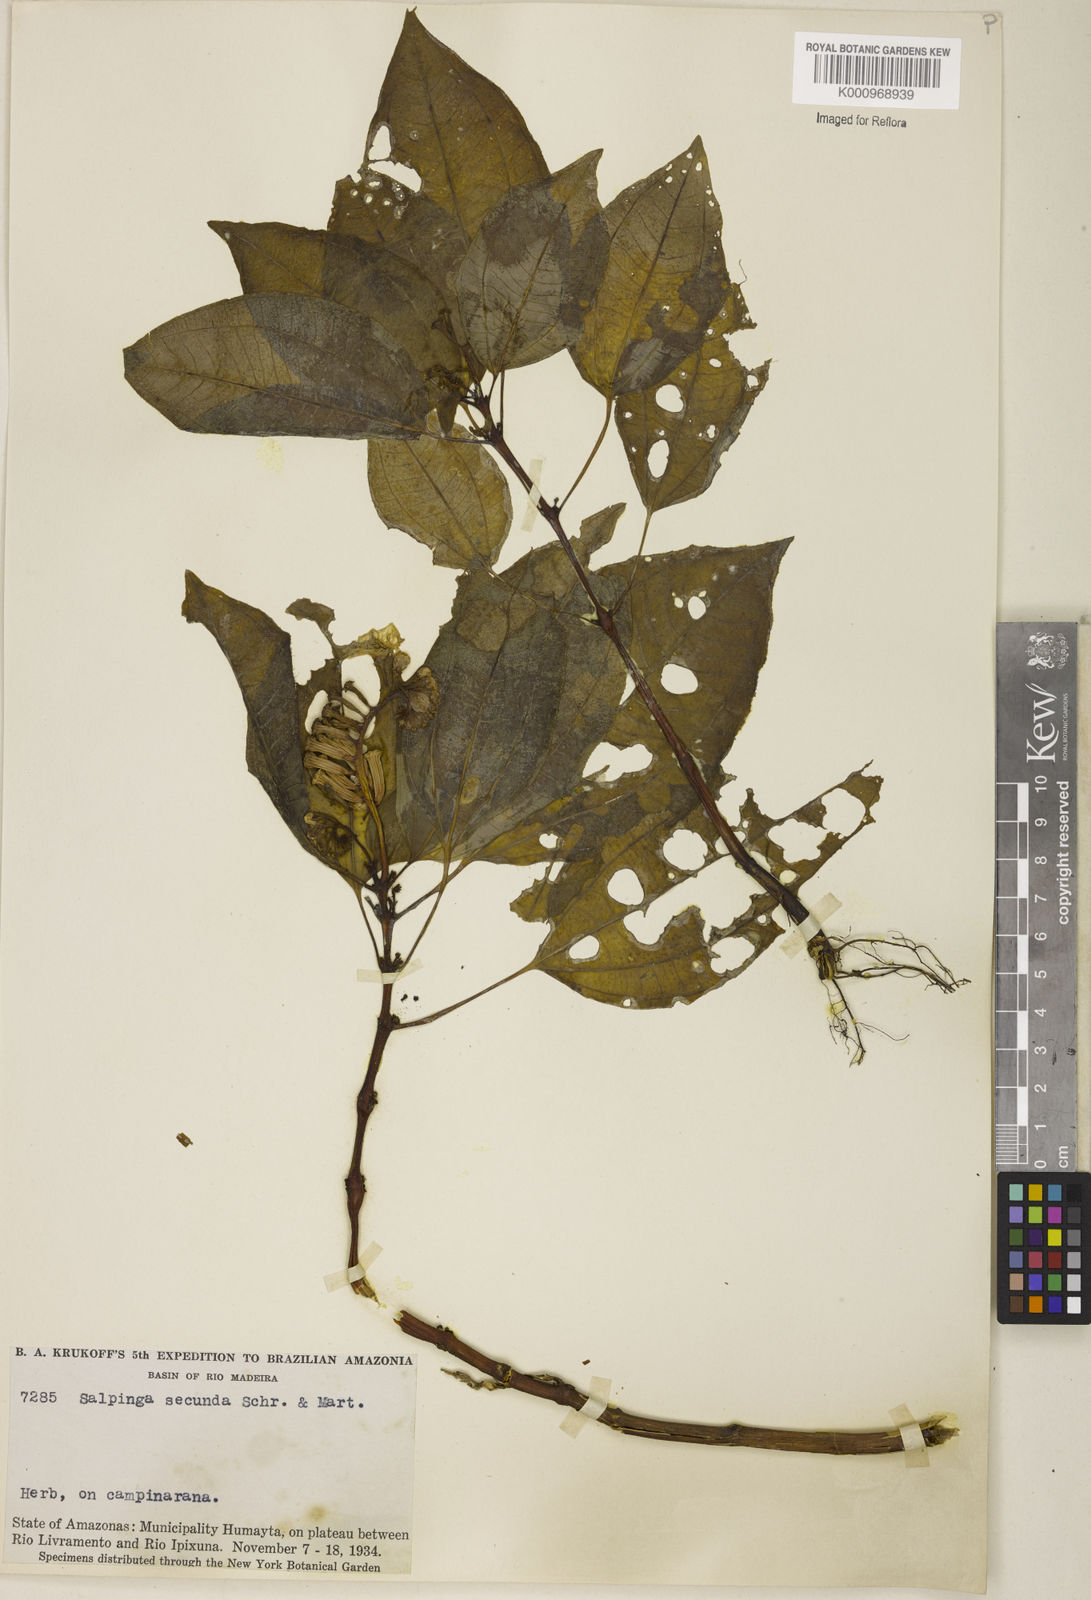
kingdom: Plantae
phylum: Tracheophyta
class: Magnoliopsida
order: Myrtales
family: Melastomataceae
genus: Salpinga
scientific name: Salpinga secunda
